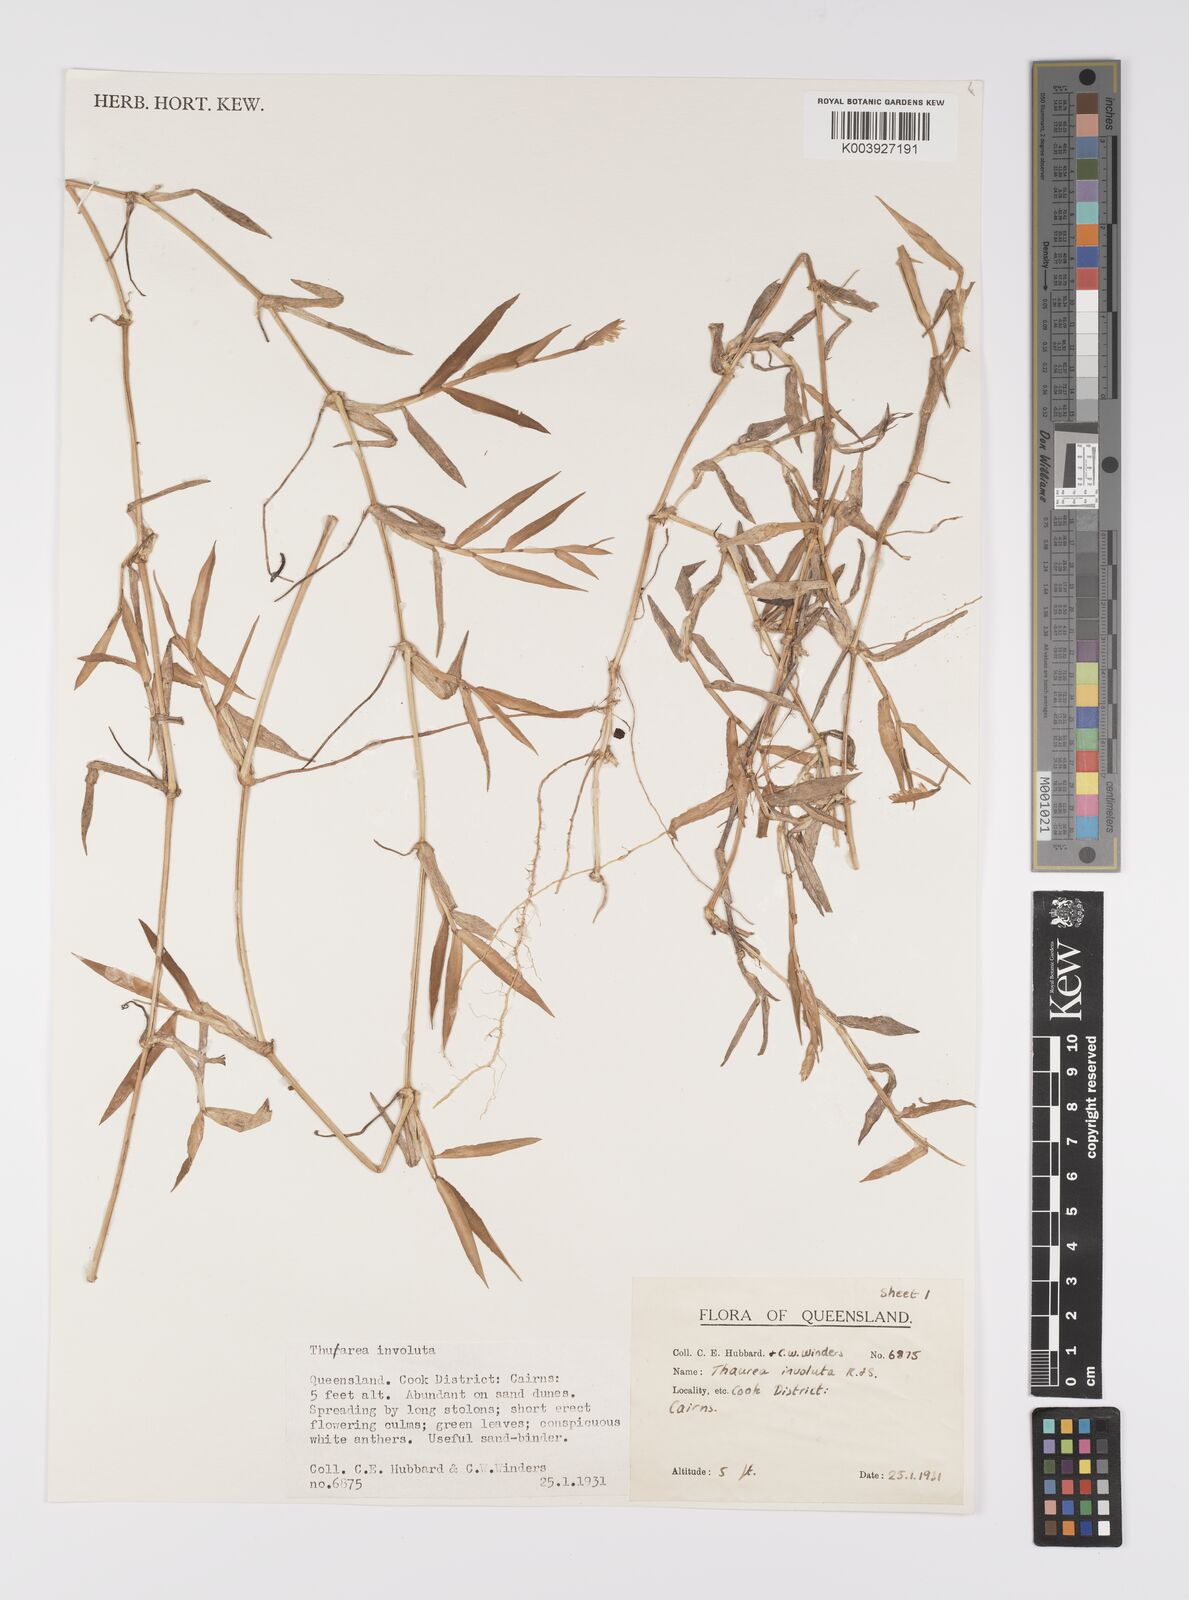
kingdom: Plantae
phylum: Tracheophyta
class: Liliopsida
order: Poales
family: Poaceae
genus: Thuarea
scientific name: Thuarea involuta
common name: Tropical beach grass
